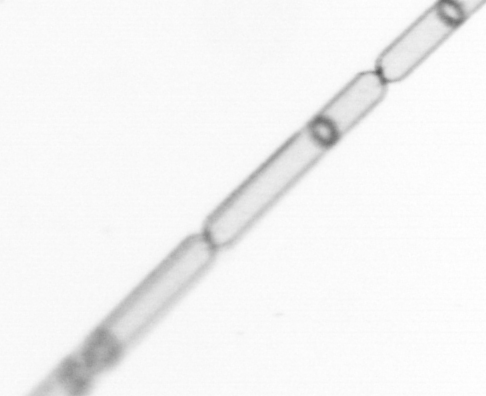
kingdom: Chromista
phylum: Ochrophyta
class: Bacillariophyceae
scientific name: Bacillariophyceae
